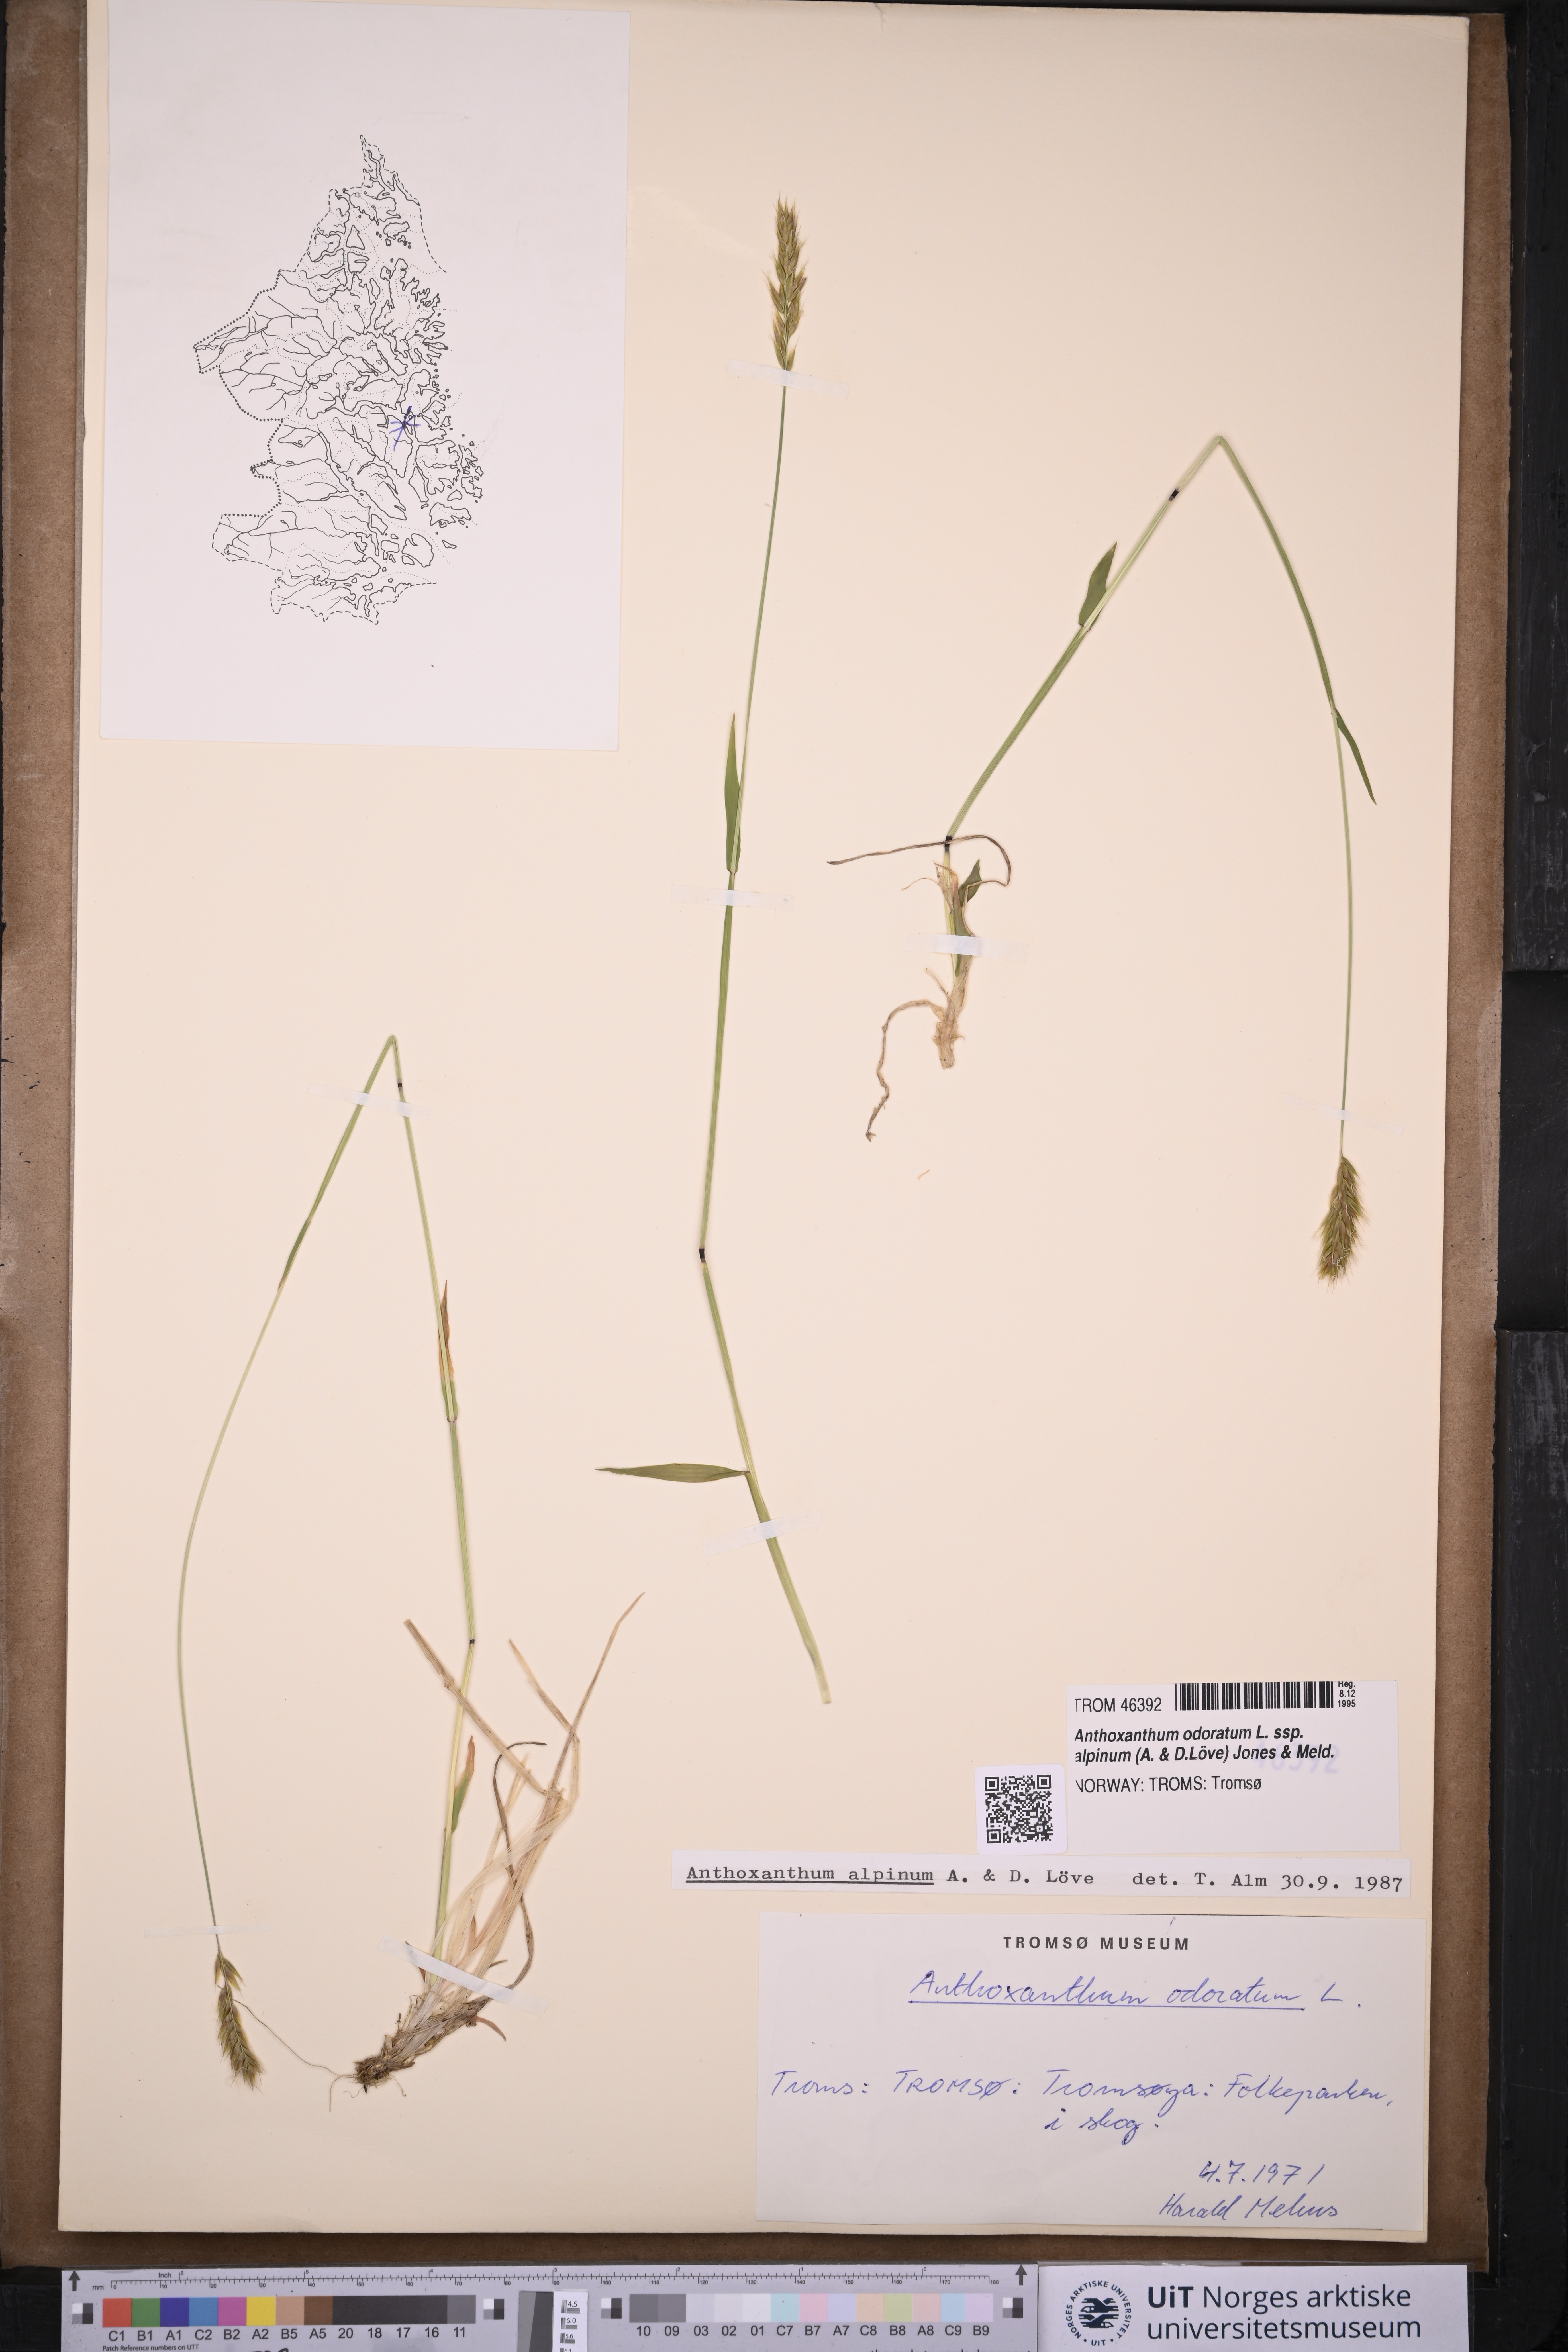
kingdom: Plantae
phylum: Tracheophyta
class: Liliopsida
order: Poales
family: Poaceae
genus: Anthoxanthum
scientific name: Anthoxanthum nipponicum
